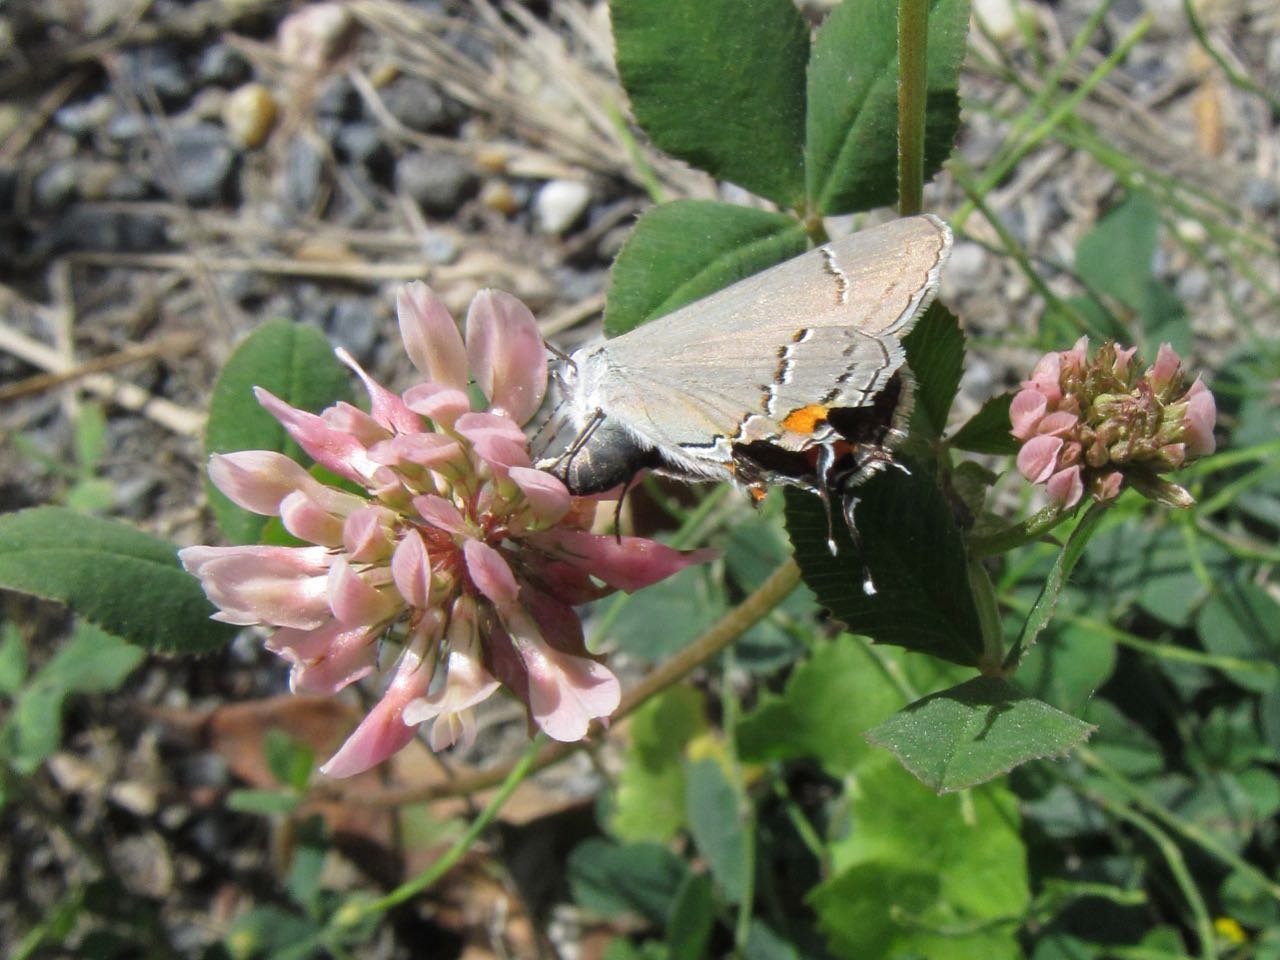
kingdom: Animalia
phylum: Arthropoda
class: Insecta
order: Lepidoptera
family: Lycaenidae
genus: Strymon
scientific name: Strymon melinus
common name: Gray Hairstreak
